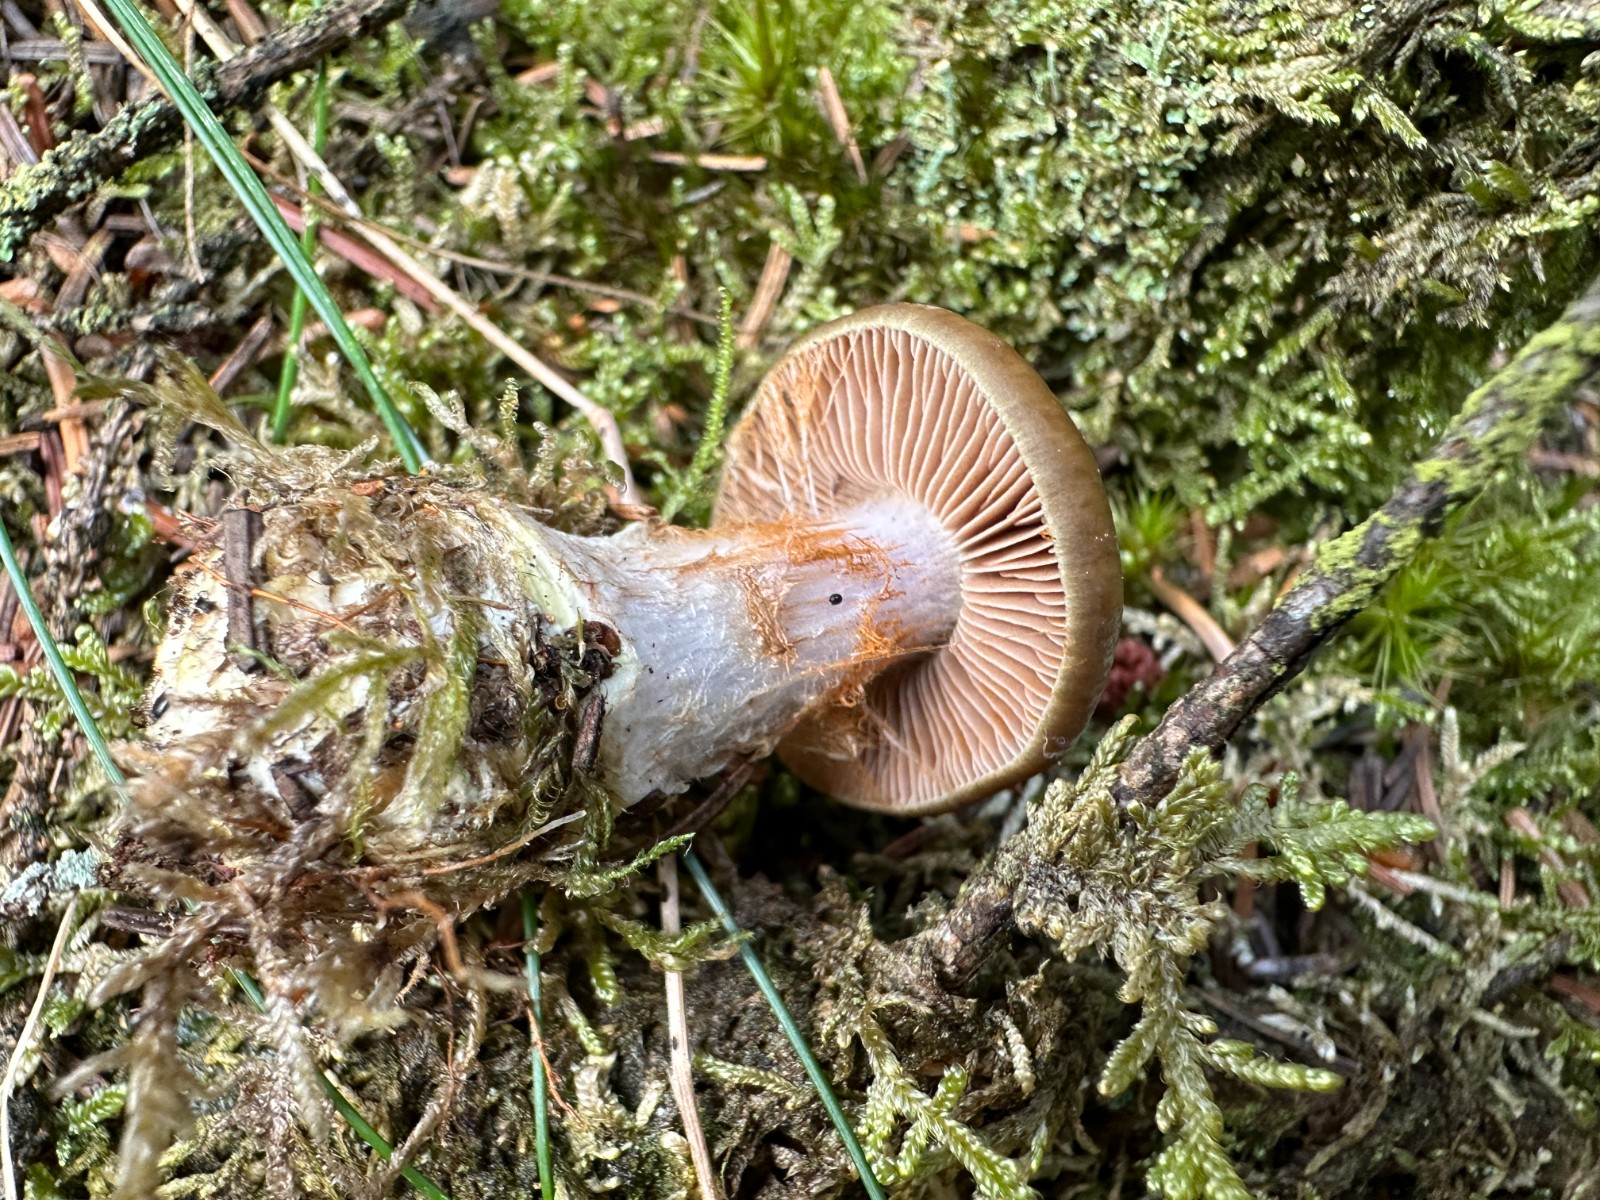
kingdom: Fungi
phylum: Basidiomycota
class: Agaricomycetes
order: Agaricales
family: Cortinariaceae
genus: Thaxterogaster
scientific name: Thaxterogaster sphagnophilus
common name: vandplettet slørhat
